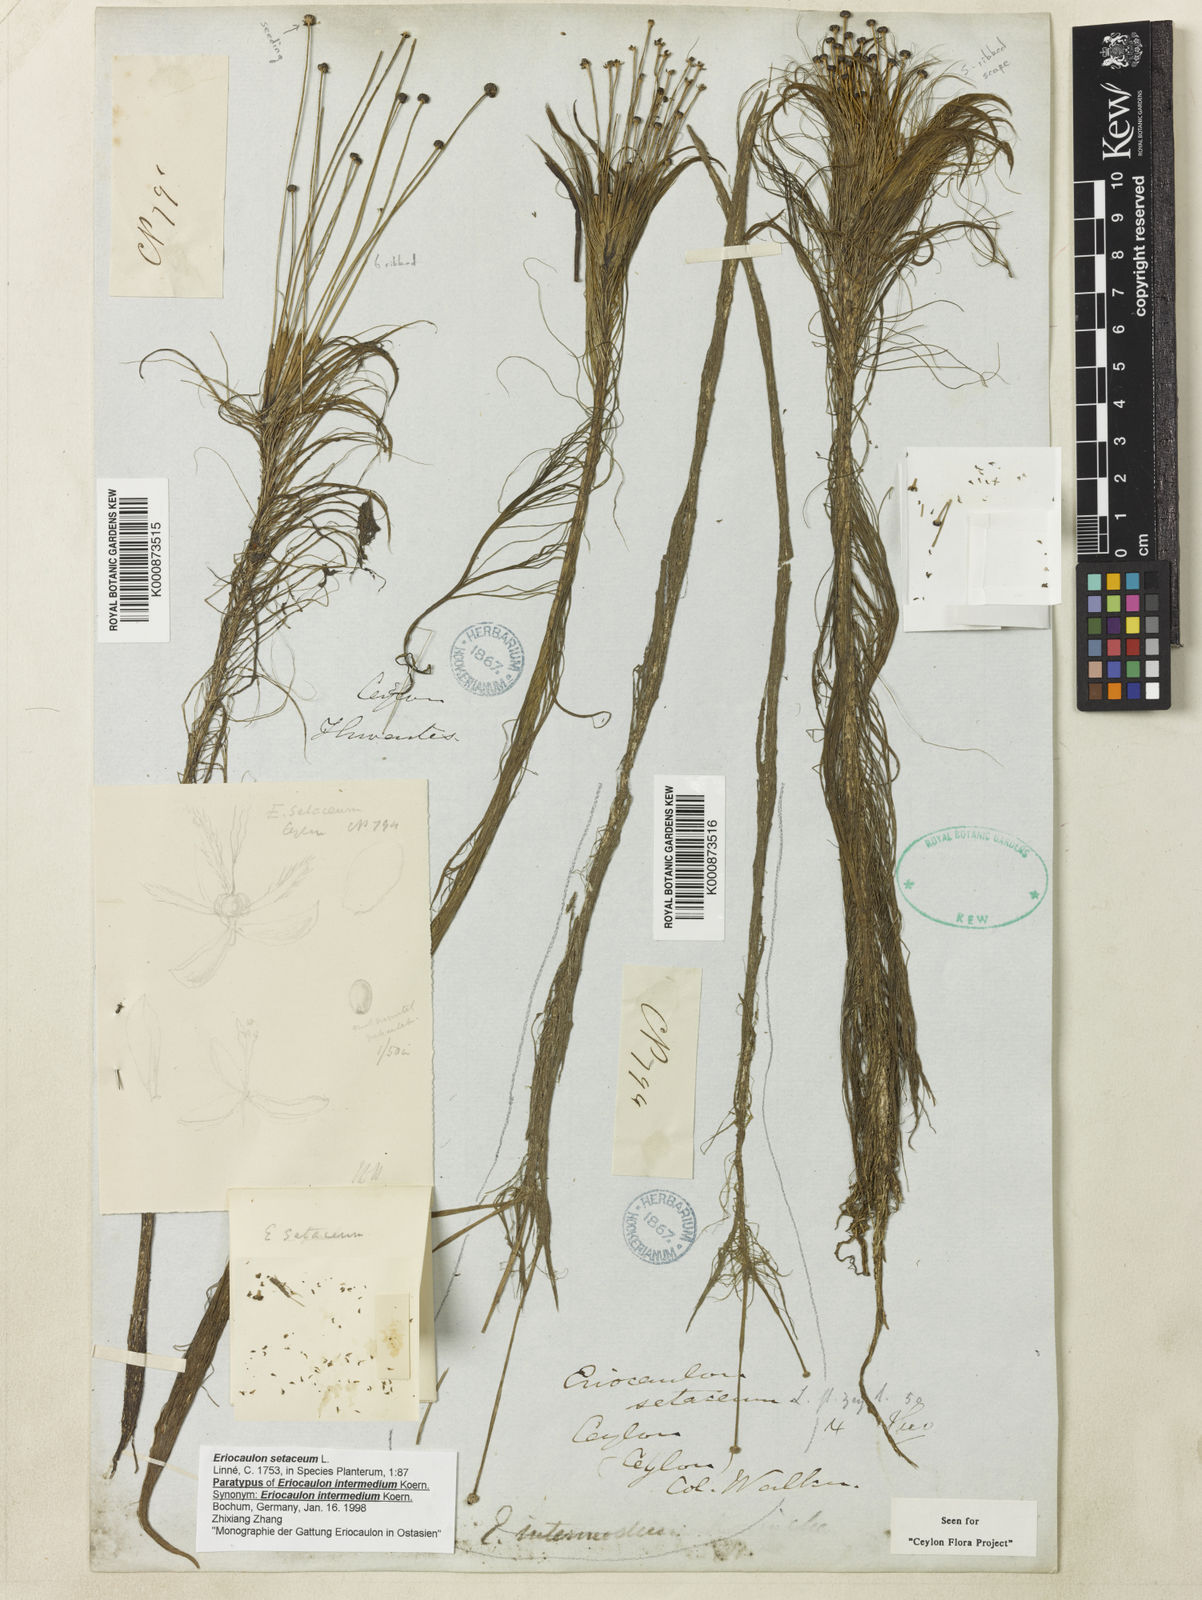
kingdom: Plantae
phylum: Tracheophyta
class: Liliopsida
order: Poales
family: Eriocaulaceae
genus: Eriocaulon
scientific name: Eriocaulon setaceum
